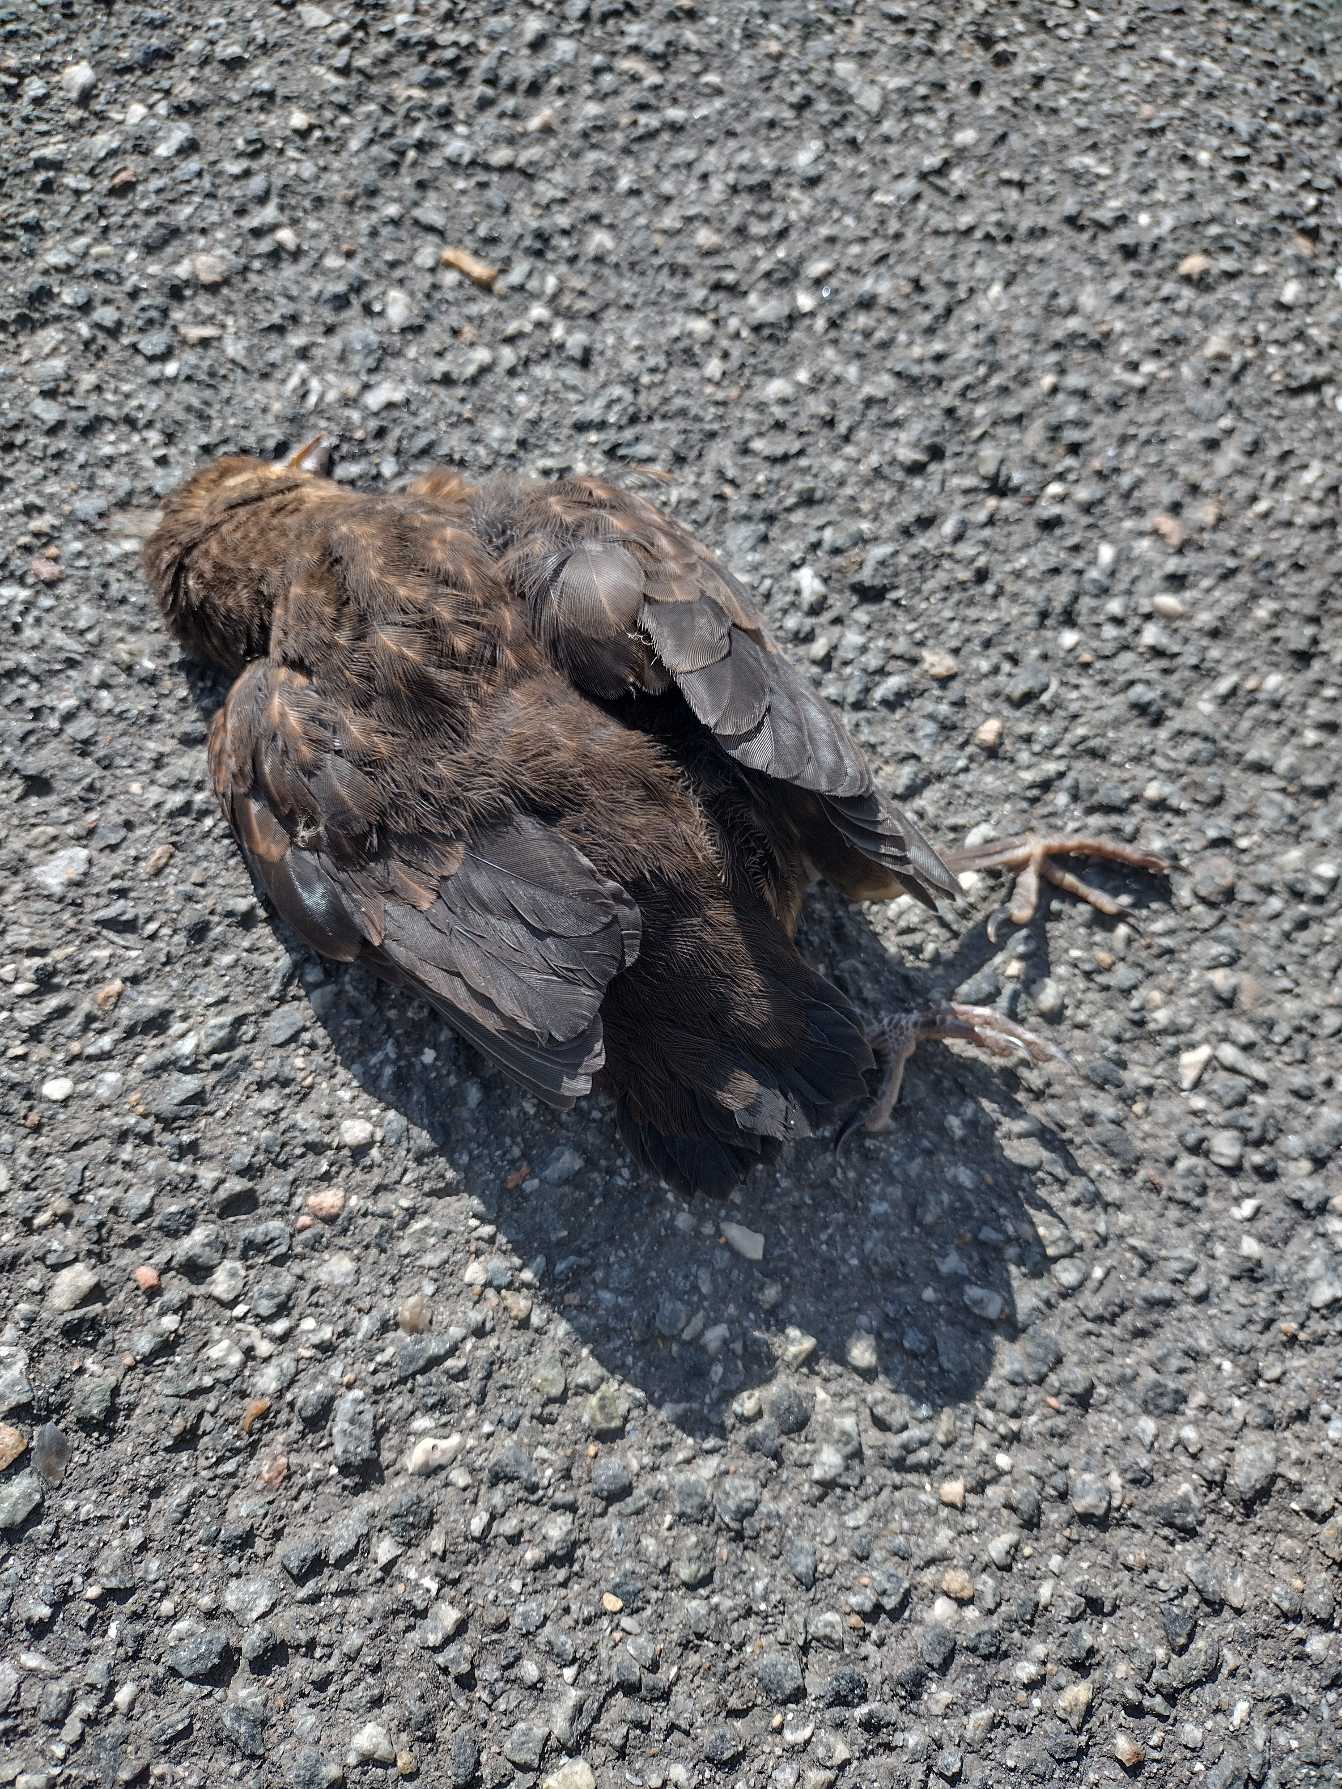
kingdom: Animalia
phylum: Chordata
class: Aves
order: Passeriformes
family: Turdidae
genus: Turdus
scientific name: Turdus merula
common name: Solsort
